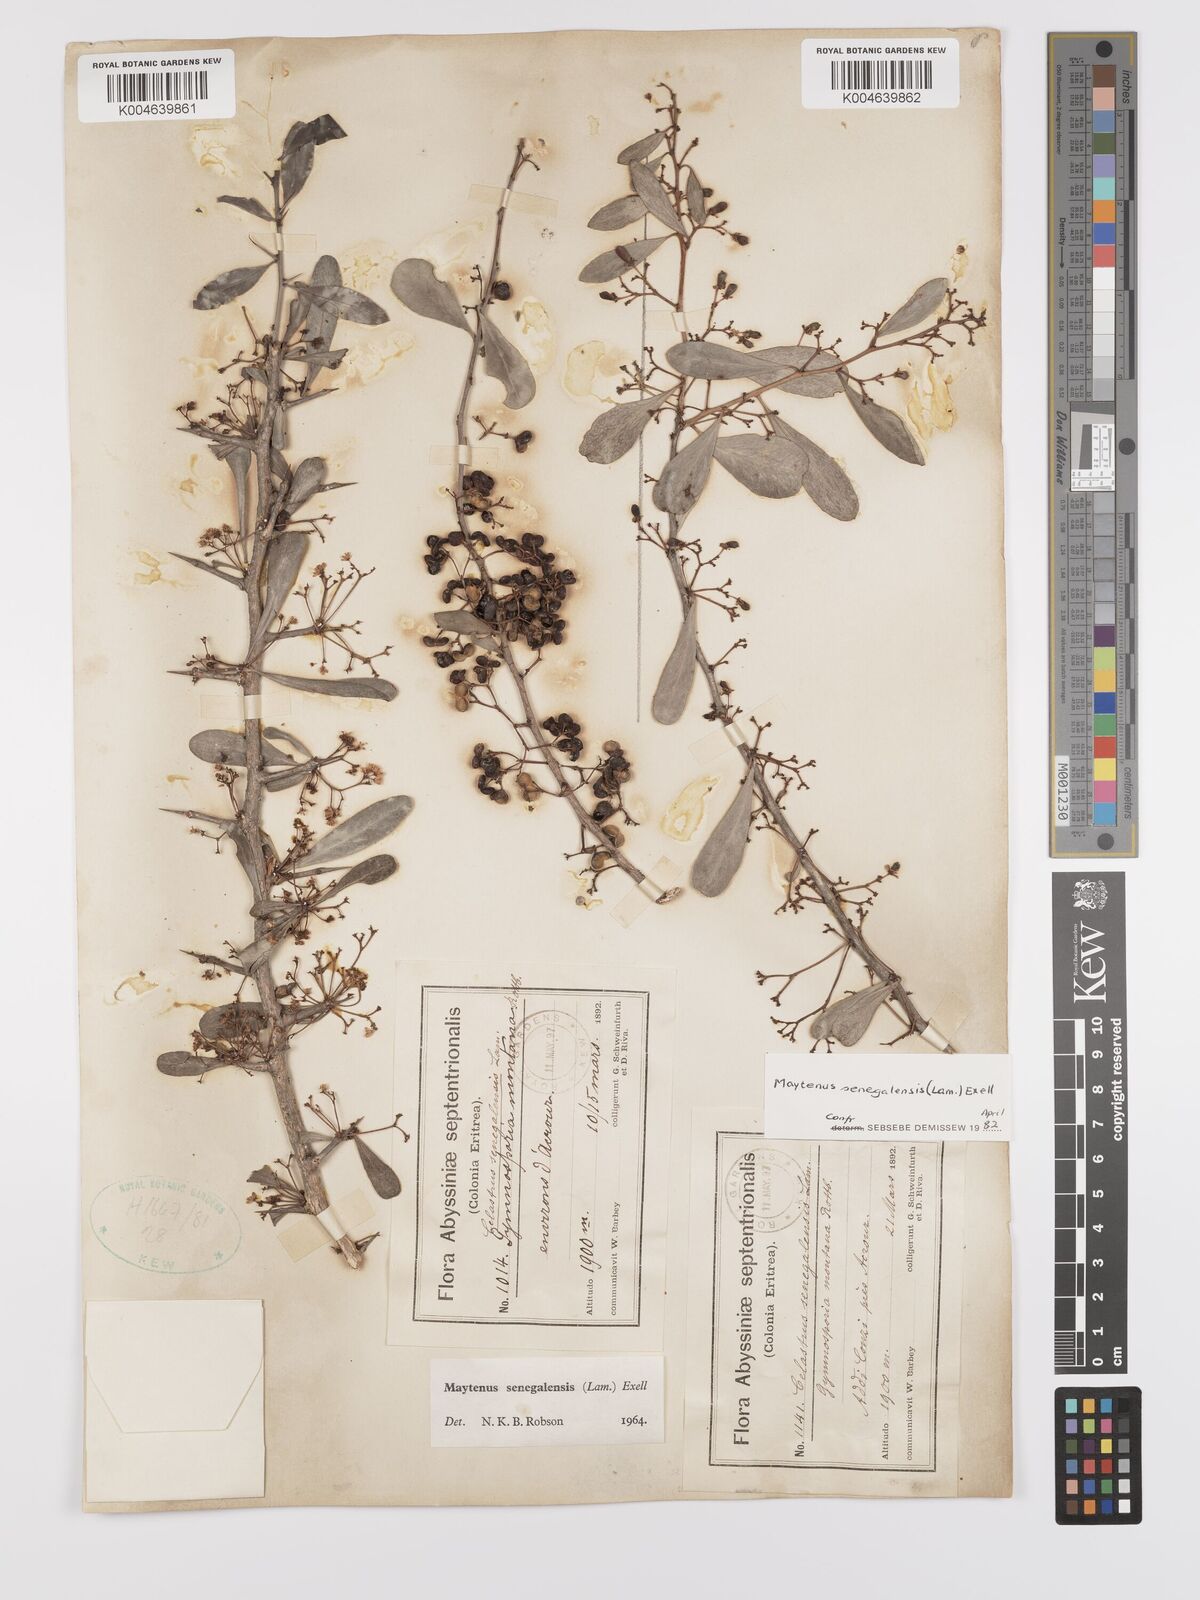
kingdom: Plantae
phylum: Tracheophyta
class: Magnoliopsida
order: Celastrales
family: Celastraceae
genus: Gymnosporia
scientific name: Gymnosporia senegalensis
